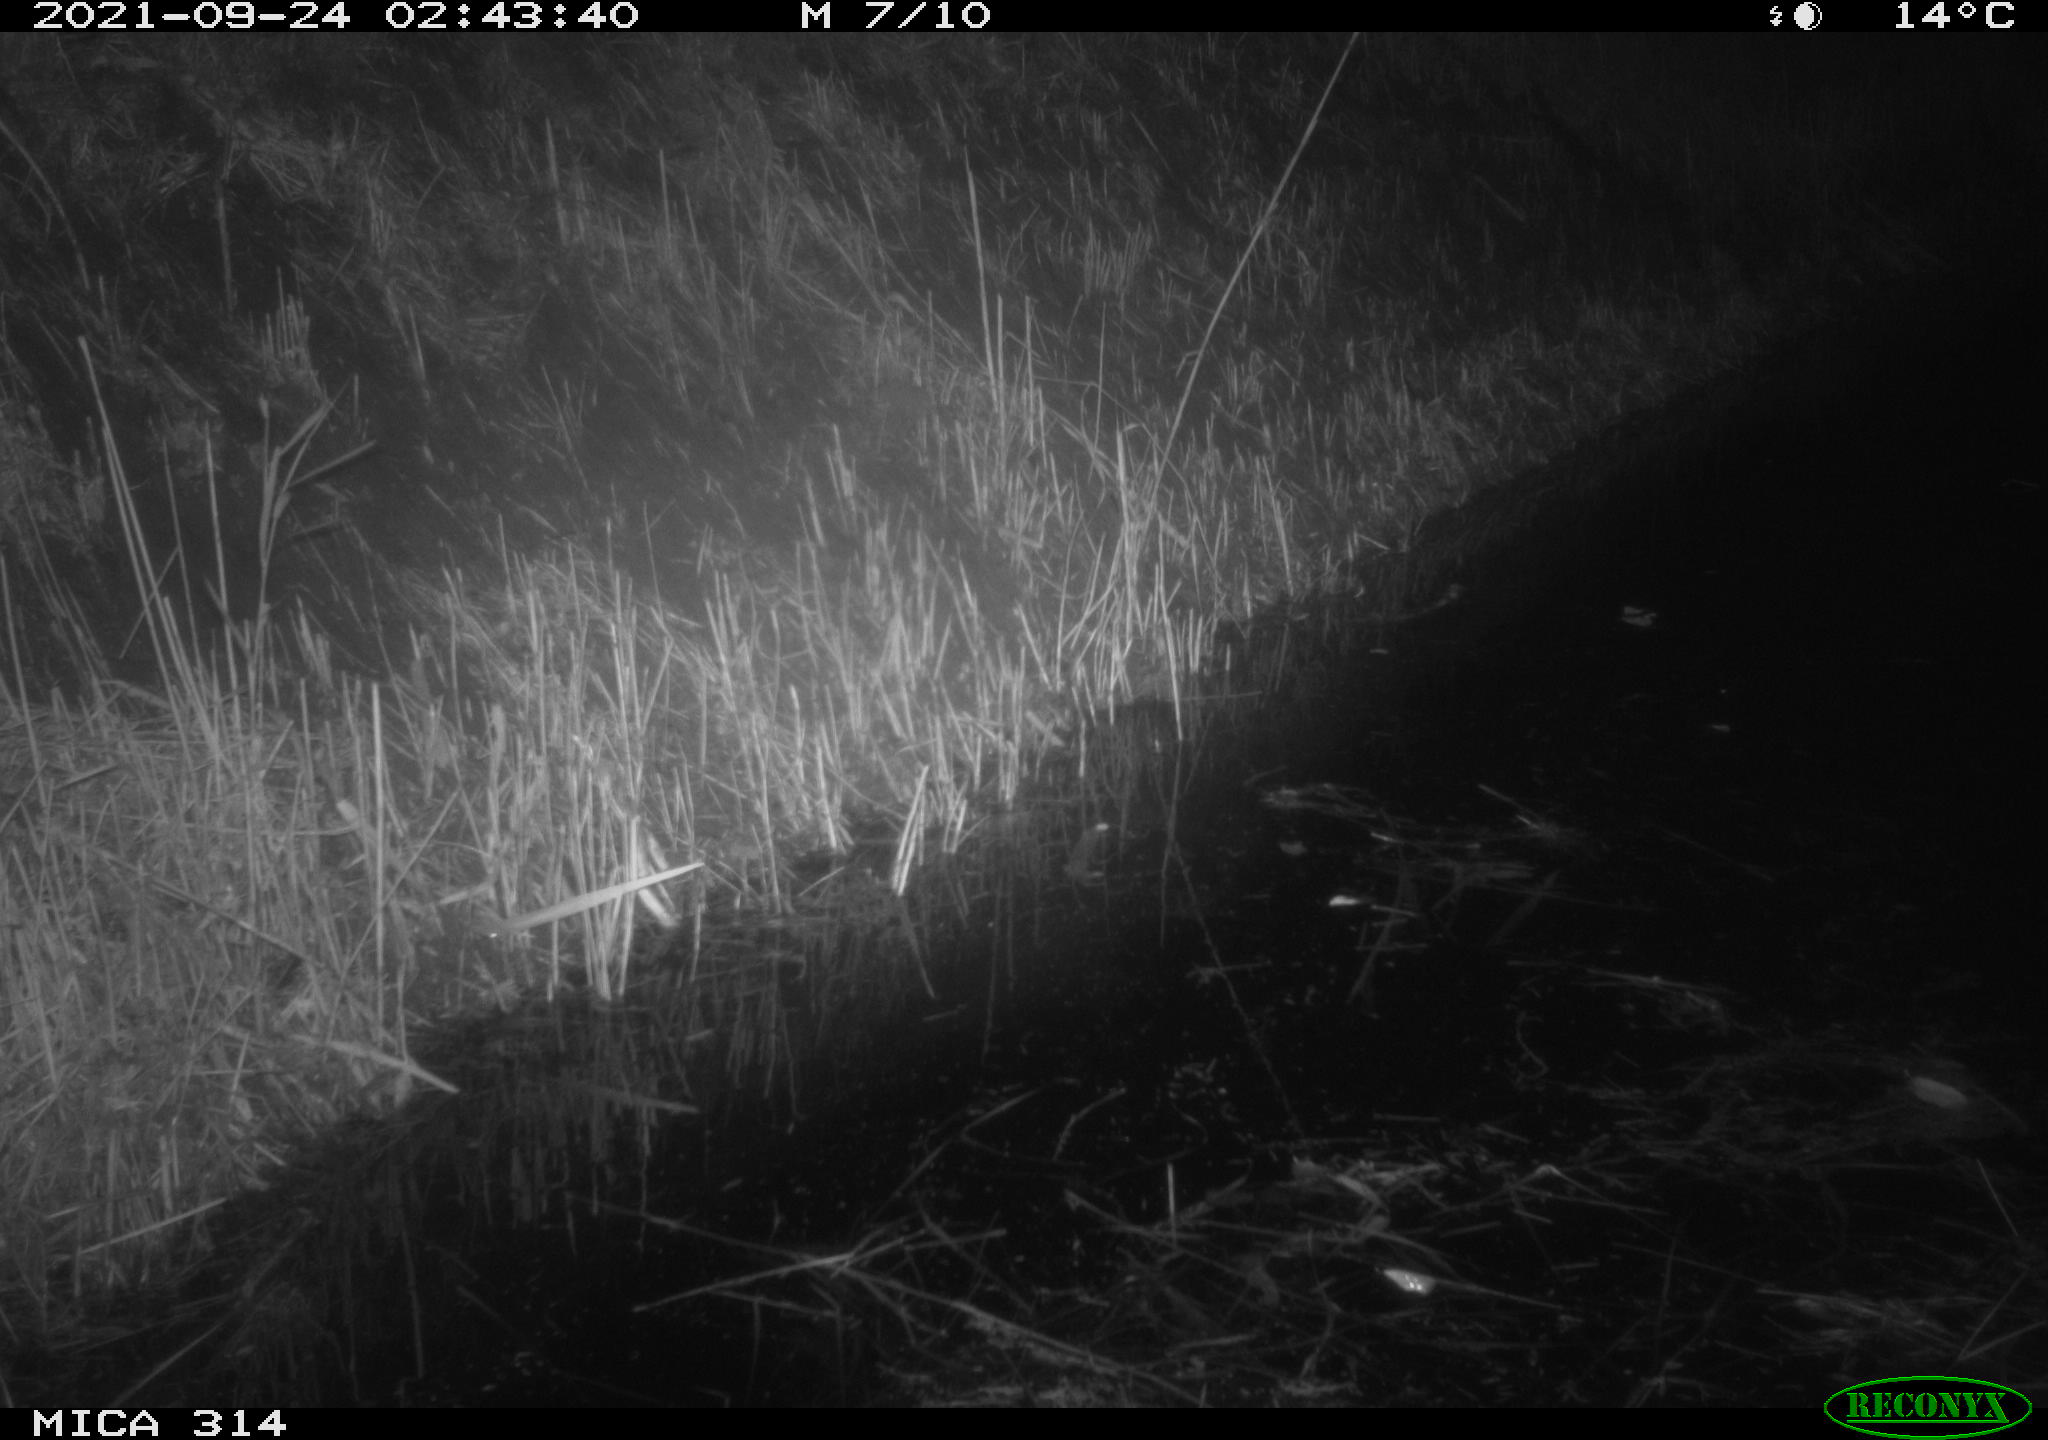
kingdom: Animalia
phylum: Chordata
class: Mammalia
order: Rodentia
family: Muridae
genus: Rattus
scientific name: Rattus norvegicus
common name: Brown rat
